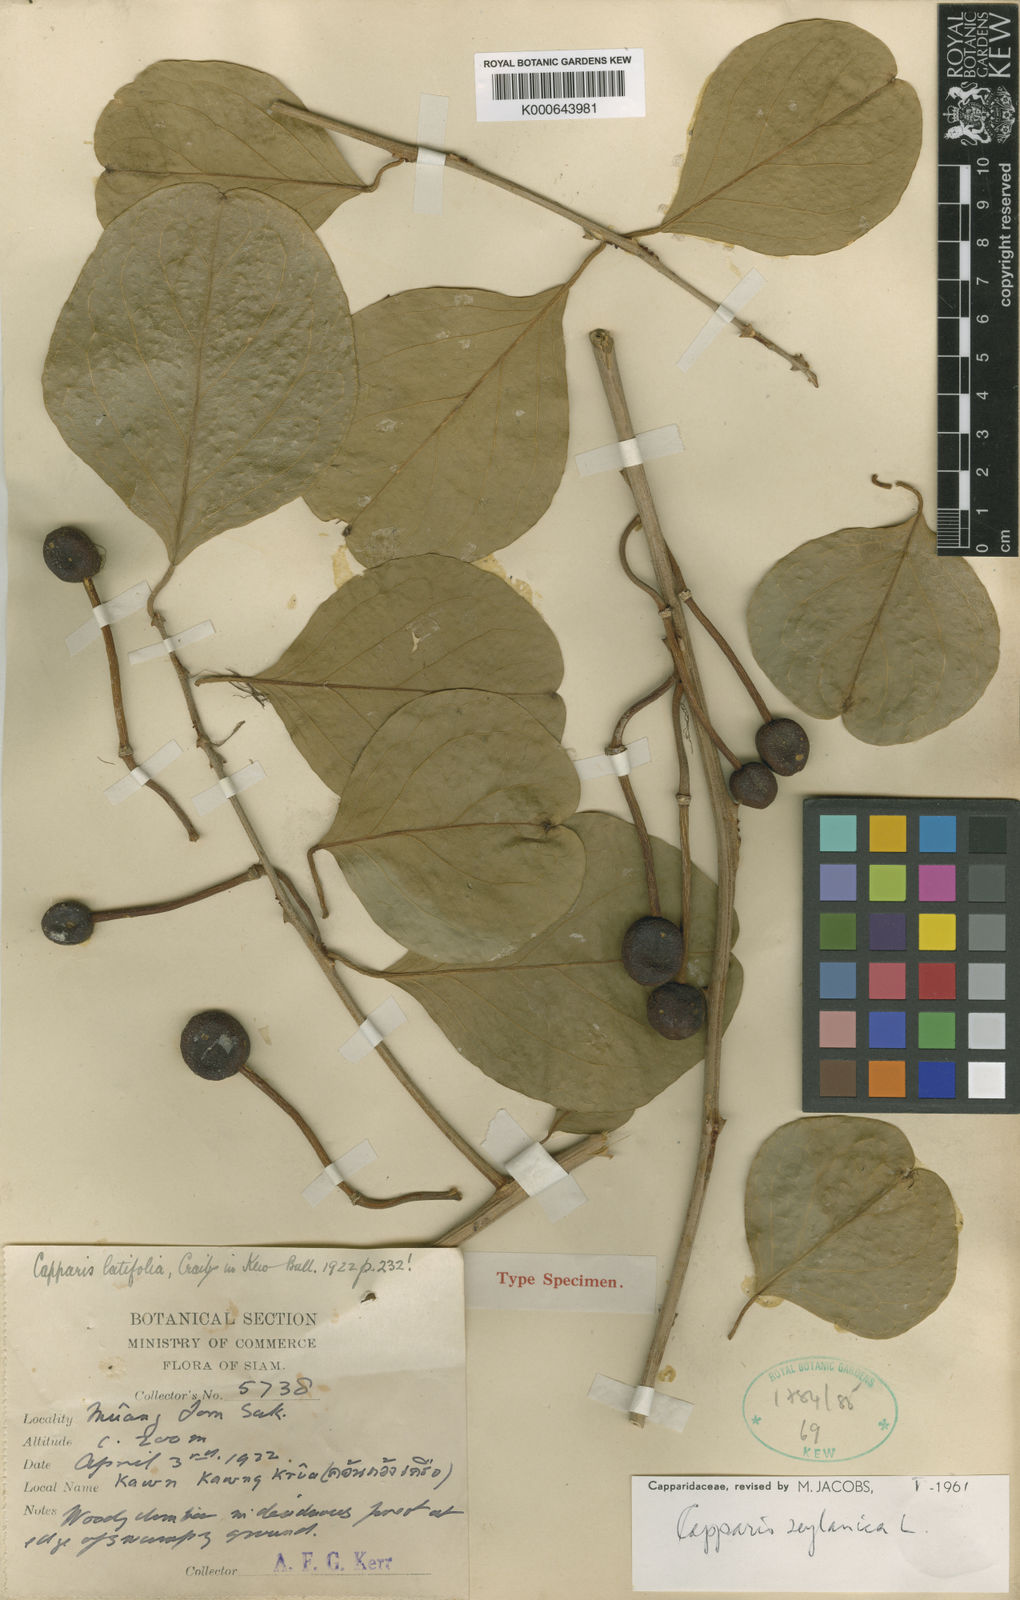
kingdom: Plantae
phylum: Tracheophyta
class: Magnoliopsida
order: Brassicales
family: Capparaceae
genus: Capparis
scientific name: Capparis zeylanica
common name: Ceylon caper
